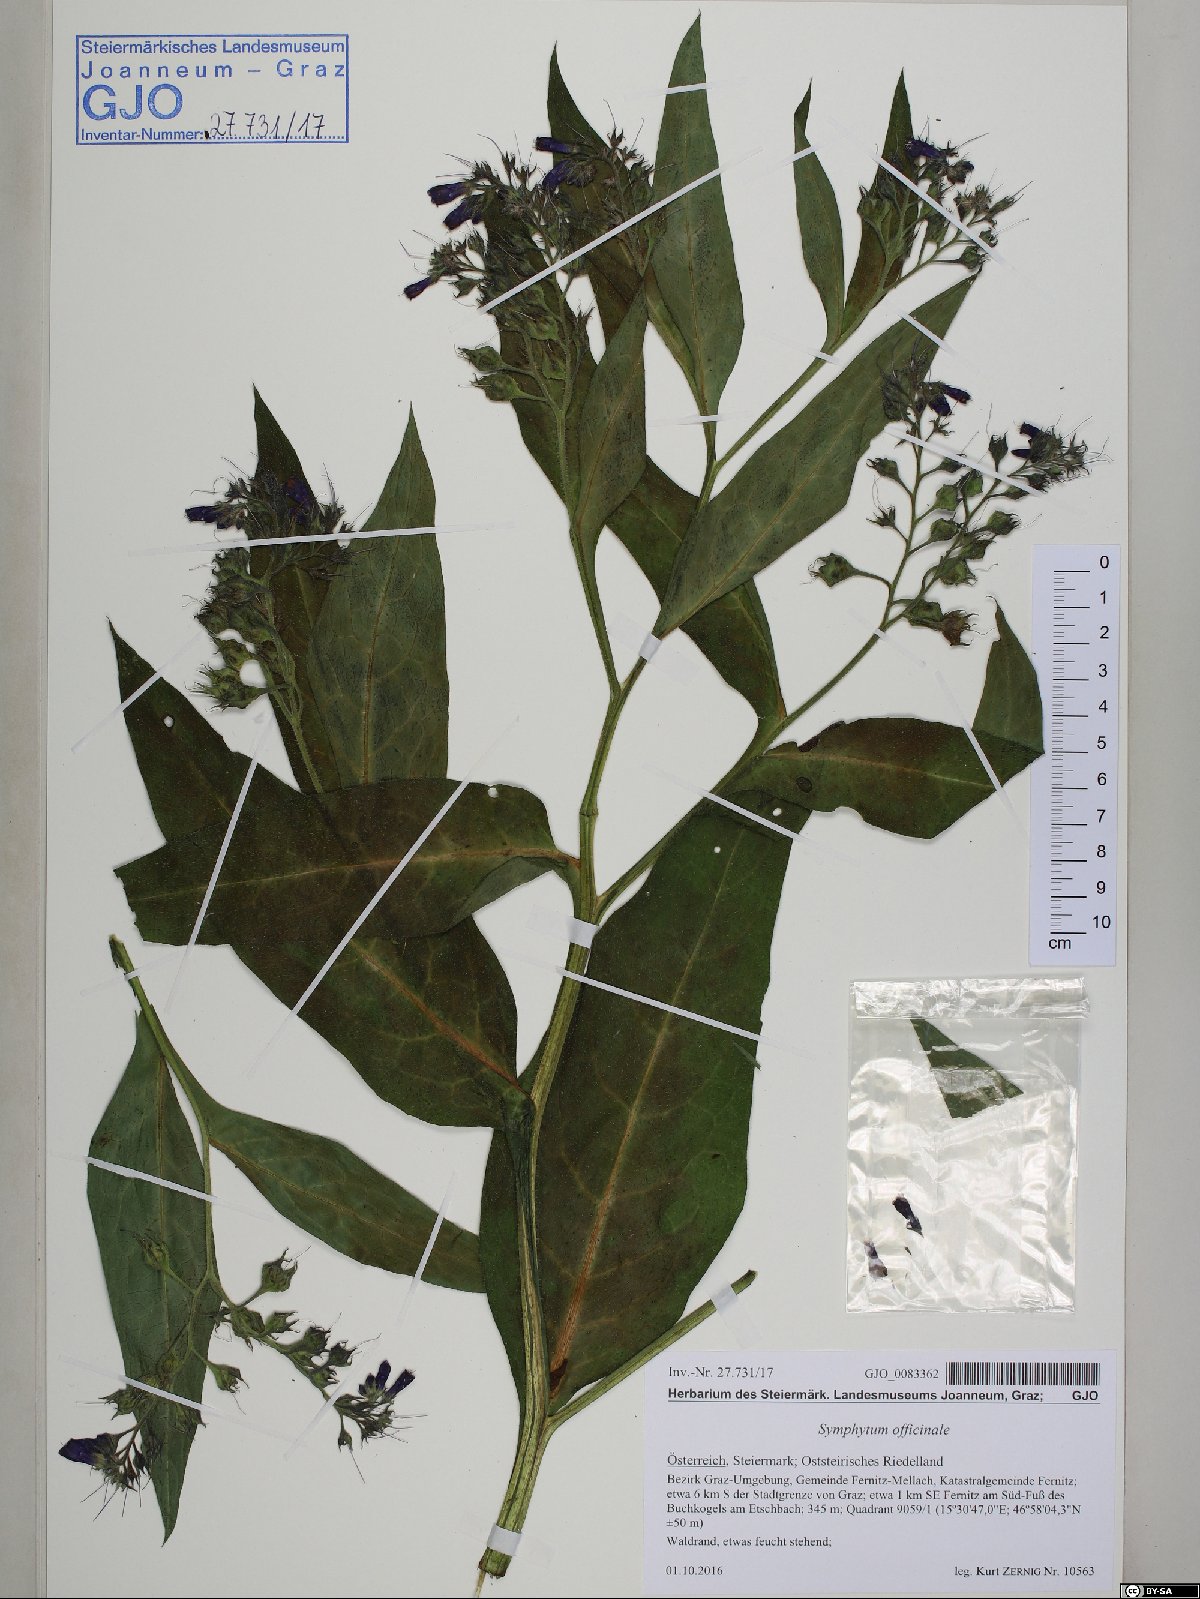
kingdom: Plantae
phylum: Tracheophyta
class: Magnoliopsida
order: Boraginales
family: Boraginaceae
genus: Symphytum
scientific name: Symphytum officinale
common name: Common comfrey
